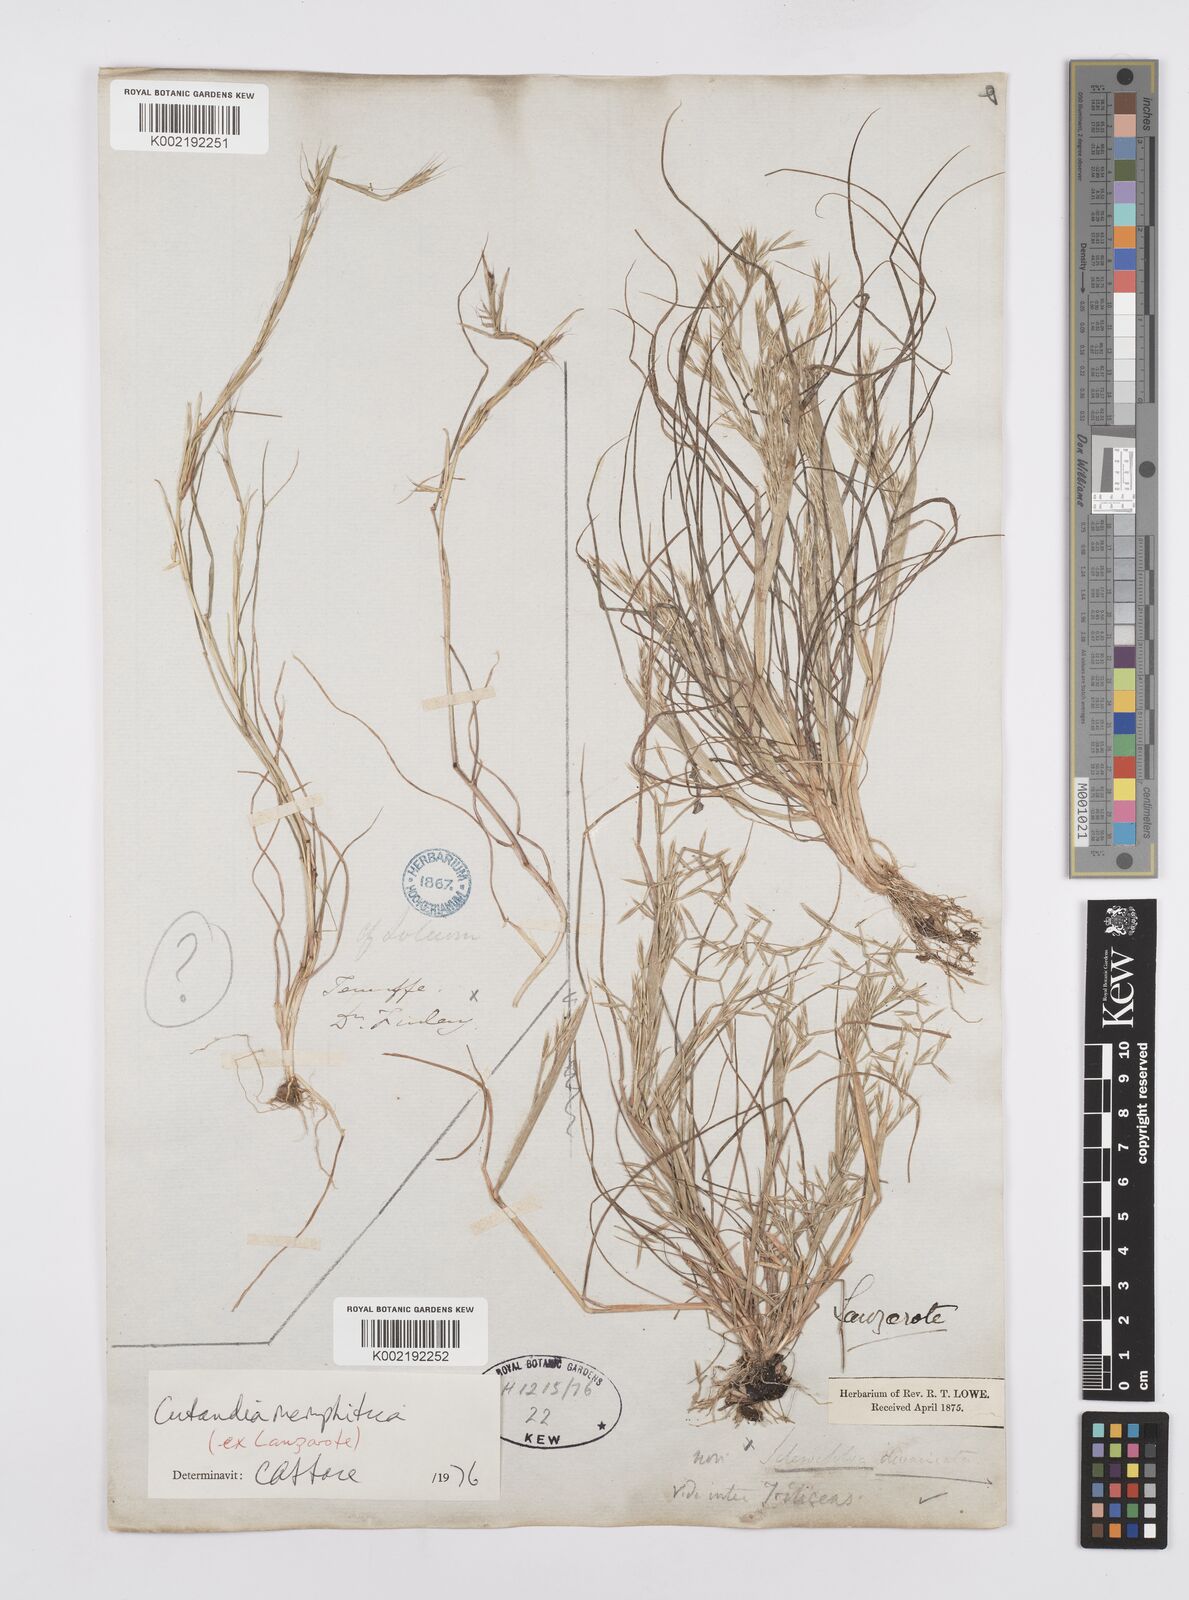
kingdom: Plantae
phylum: Tracheophyta
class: Liliopsida
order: Poales
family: Poaceae
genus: Cutandia
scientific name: Cutandia memphitica
